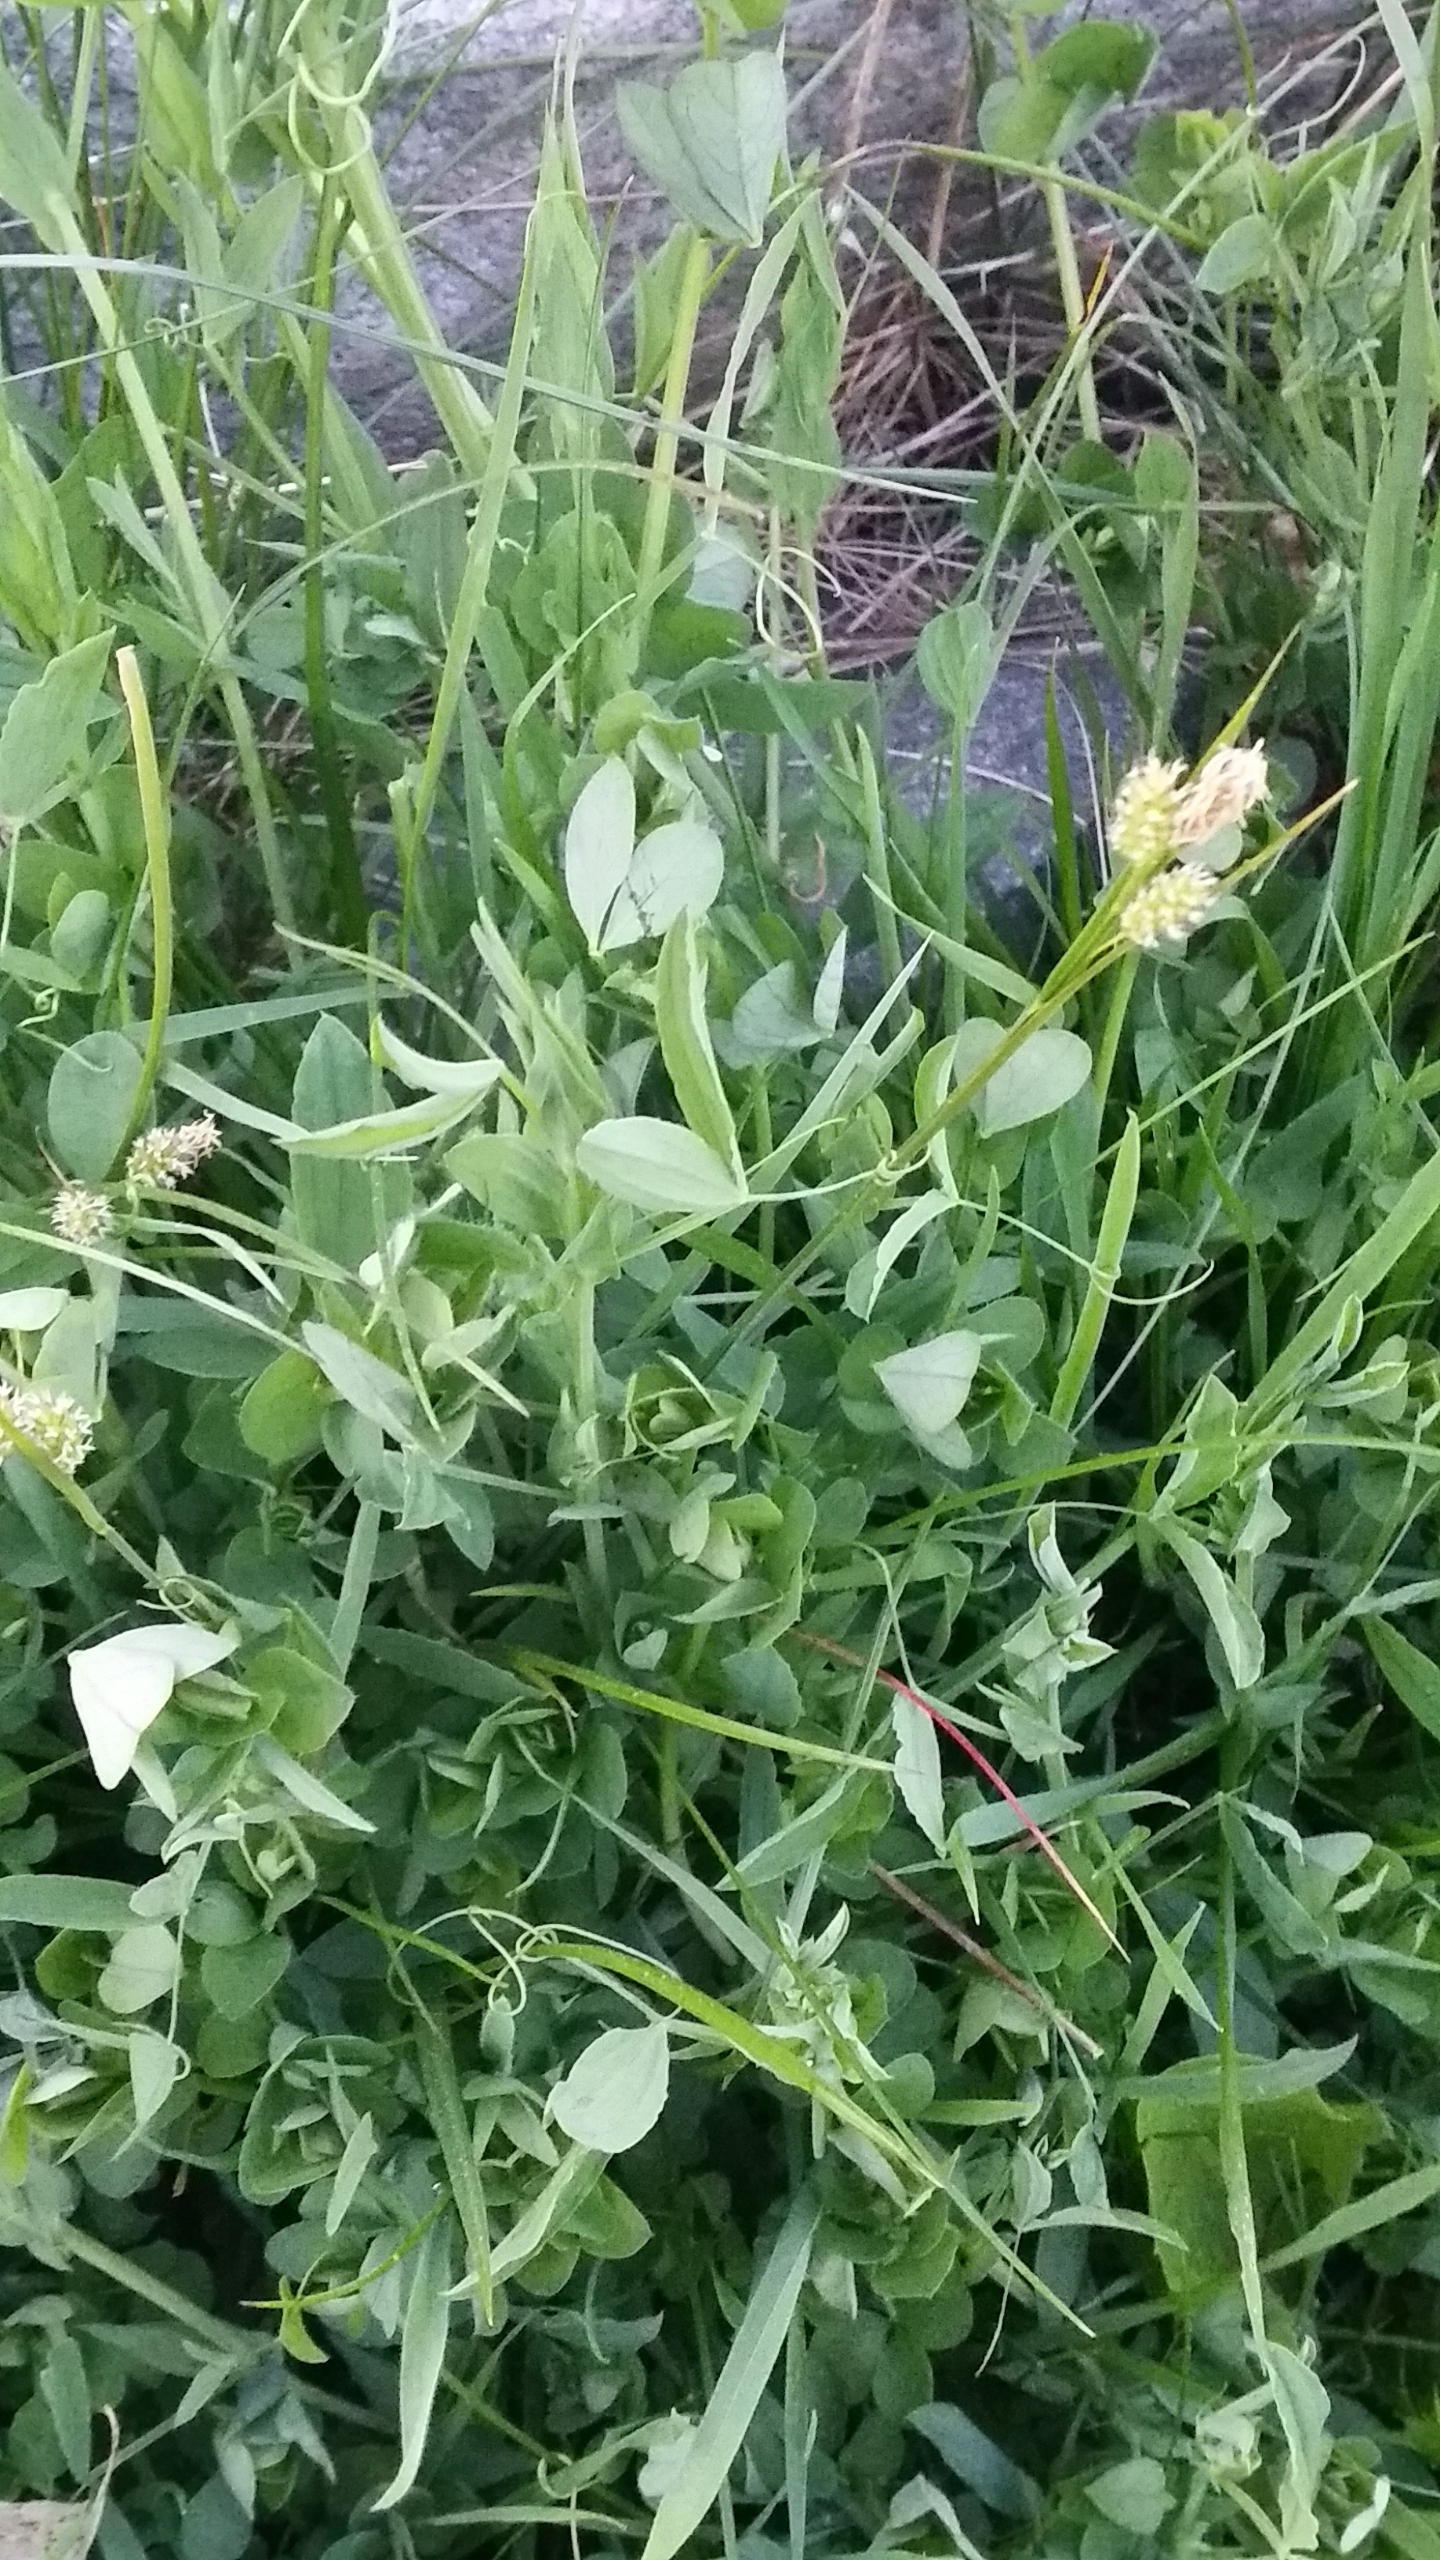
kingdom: Plantae
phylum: Tracheophyta
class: Liliopsida
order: Poales
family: Cyperaceae
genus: Carex
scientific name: Carex pallescens
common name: Bleg star
